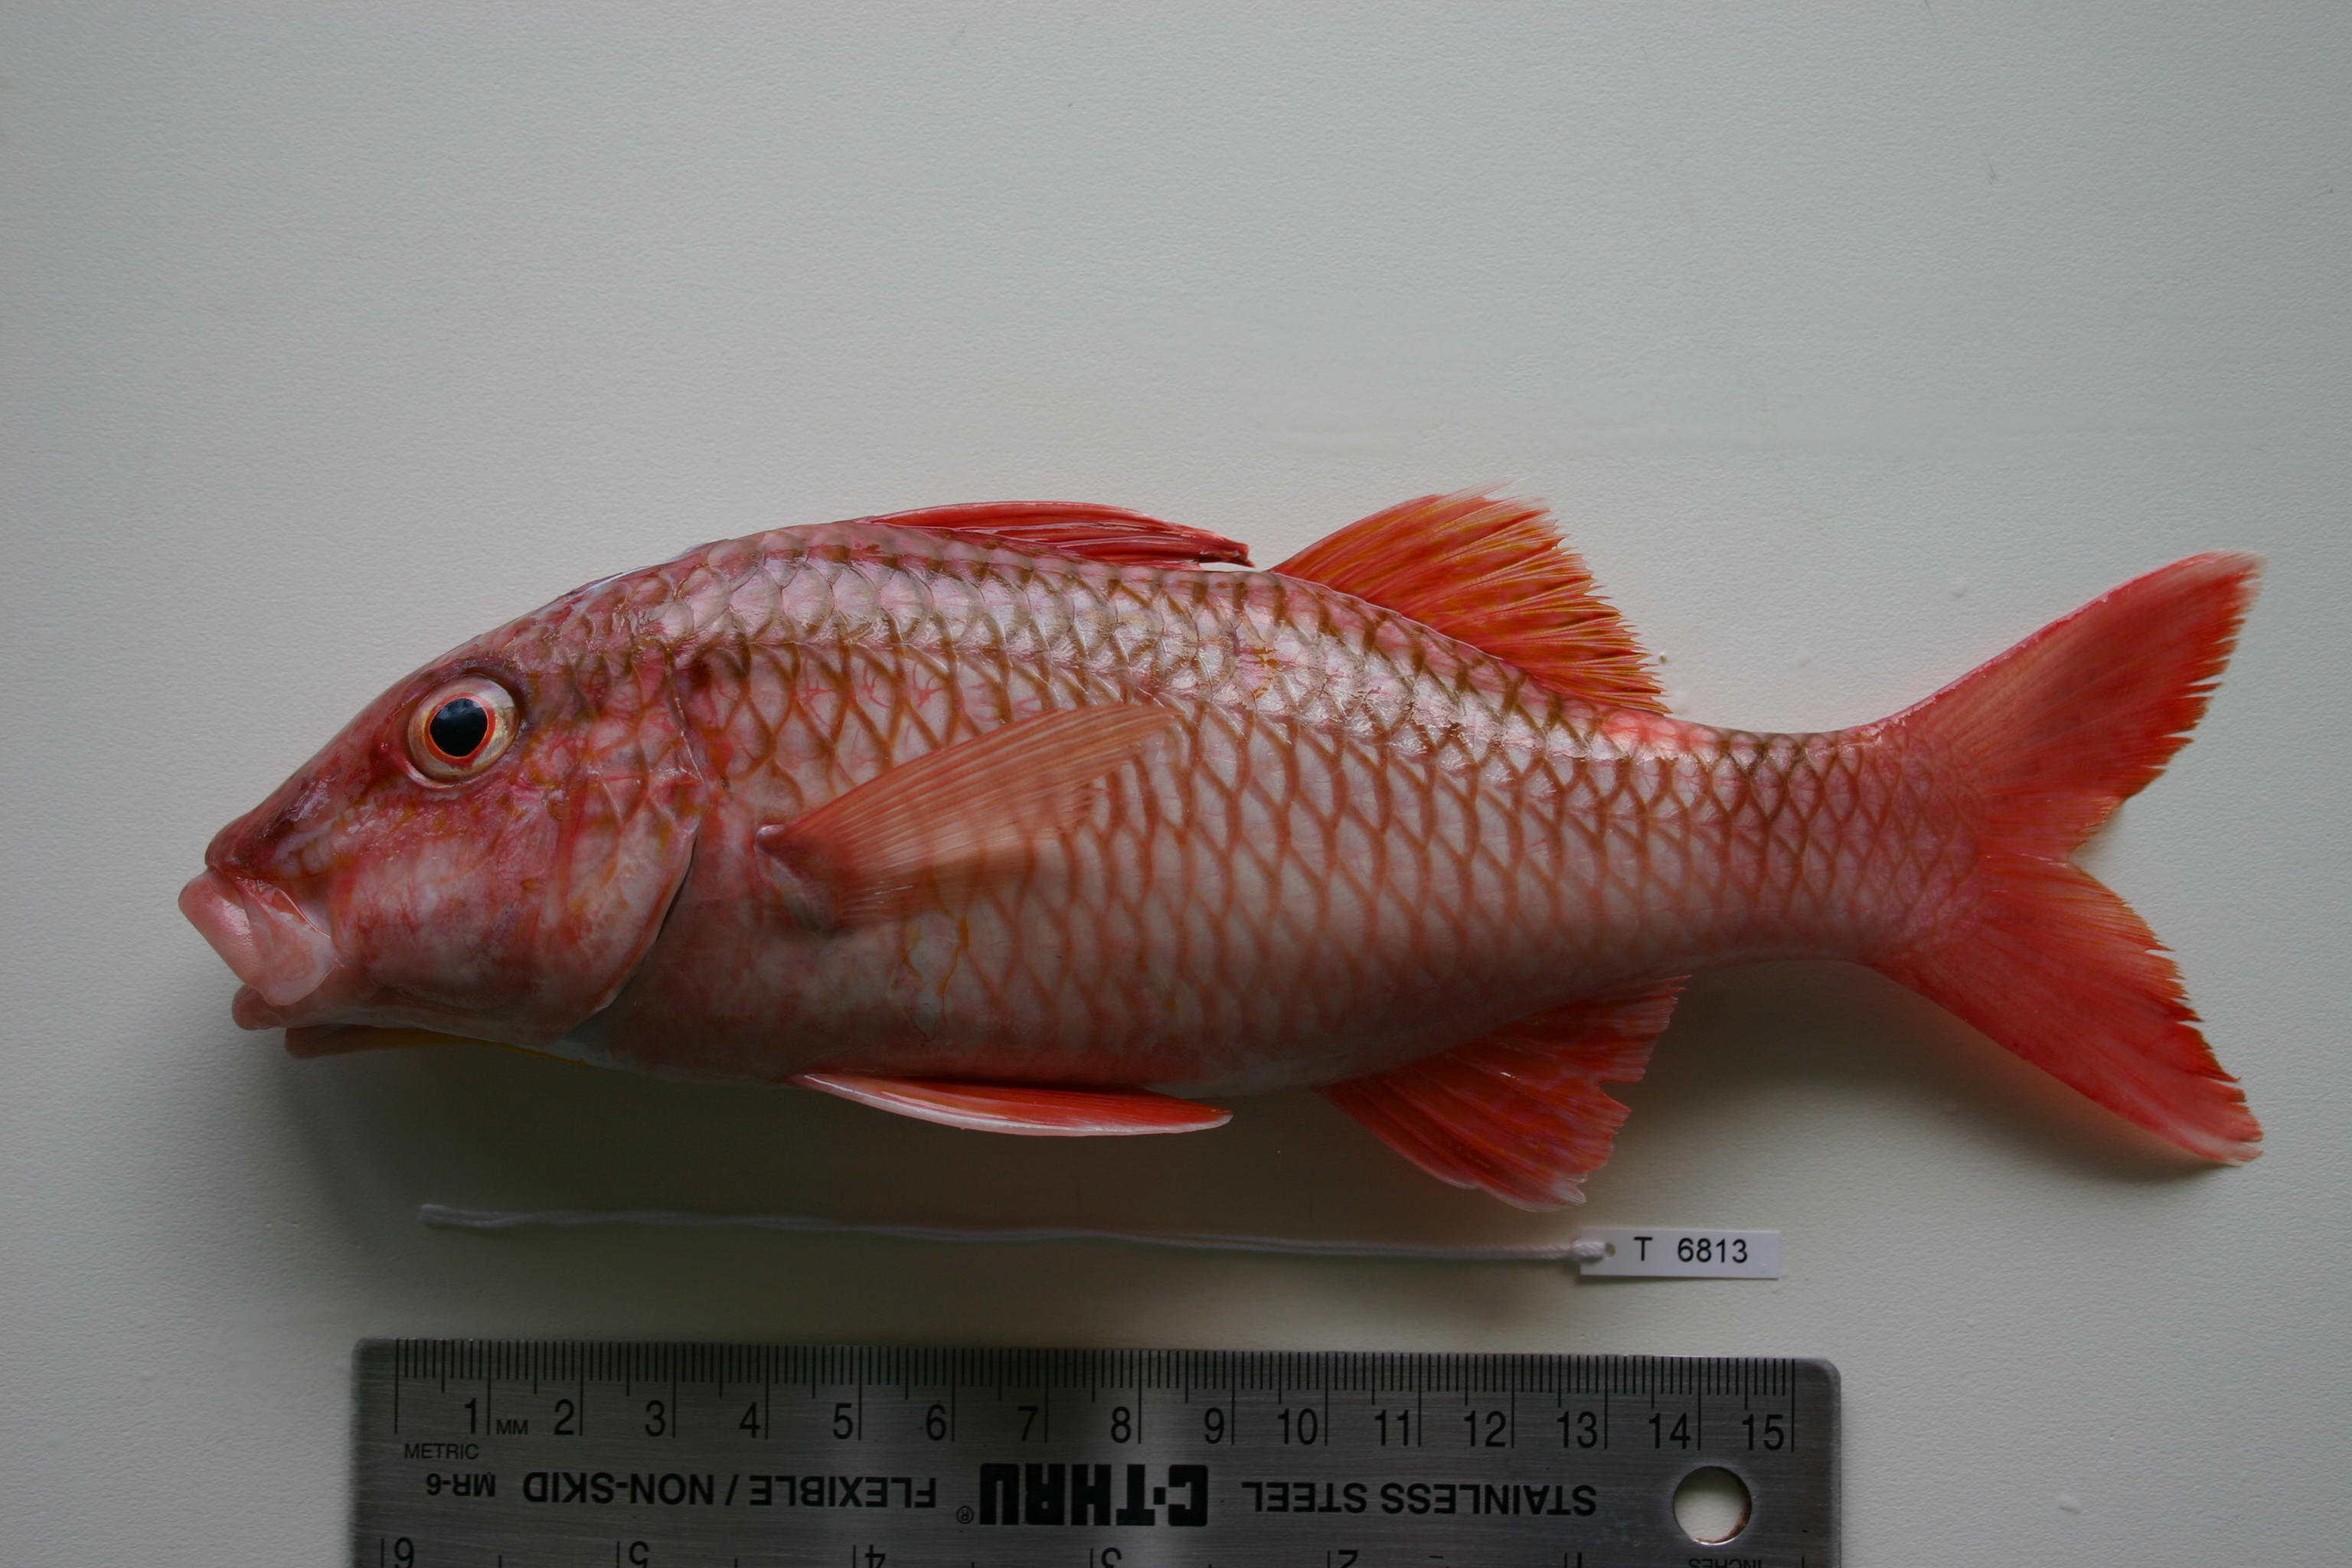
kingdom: Animalia
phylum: Chordata
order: Perciformes
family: Mullidae
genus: Parupeneus
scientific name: Parupeneus ciliatus
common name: White-lined goatfish
